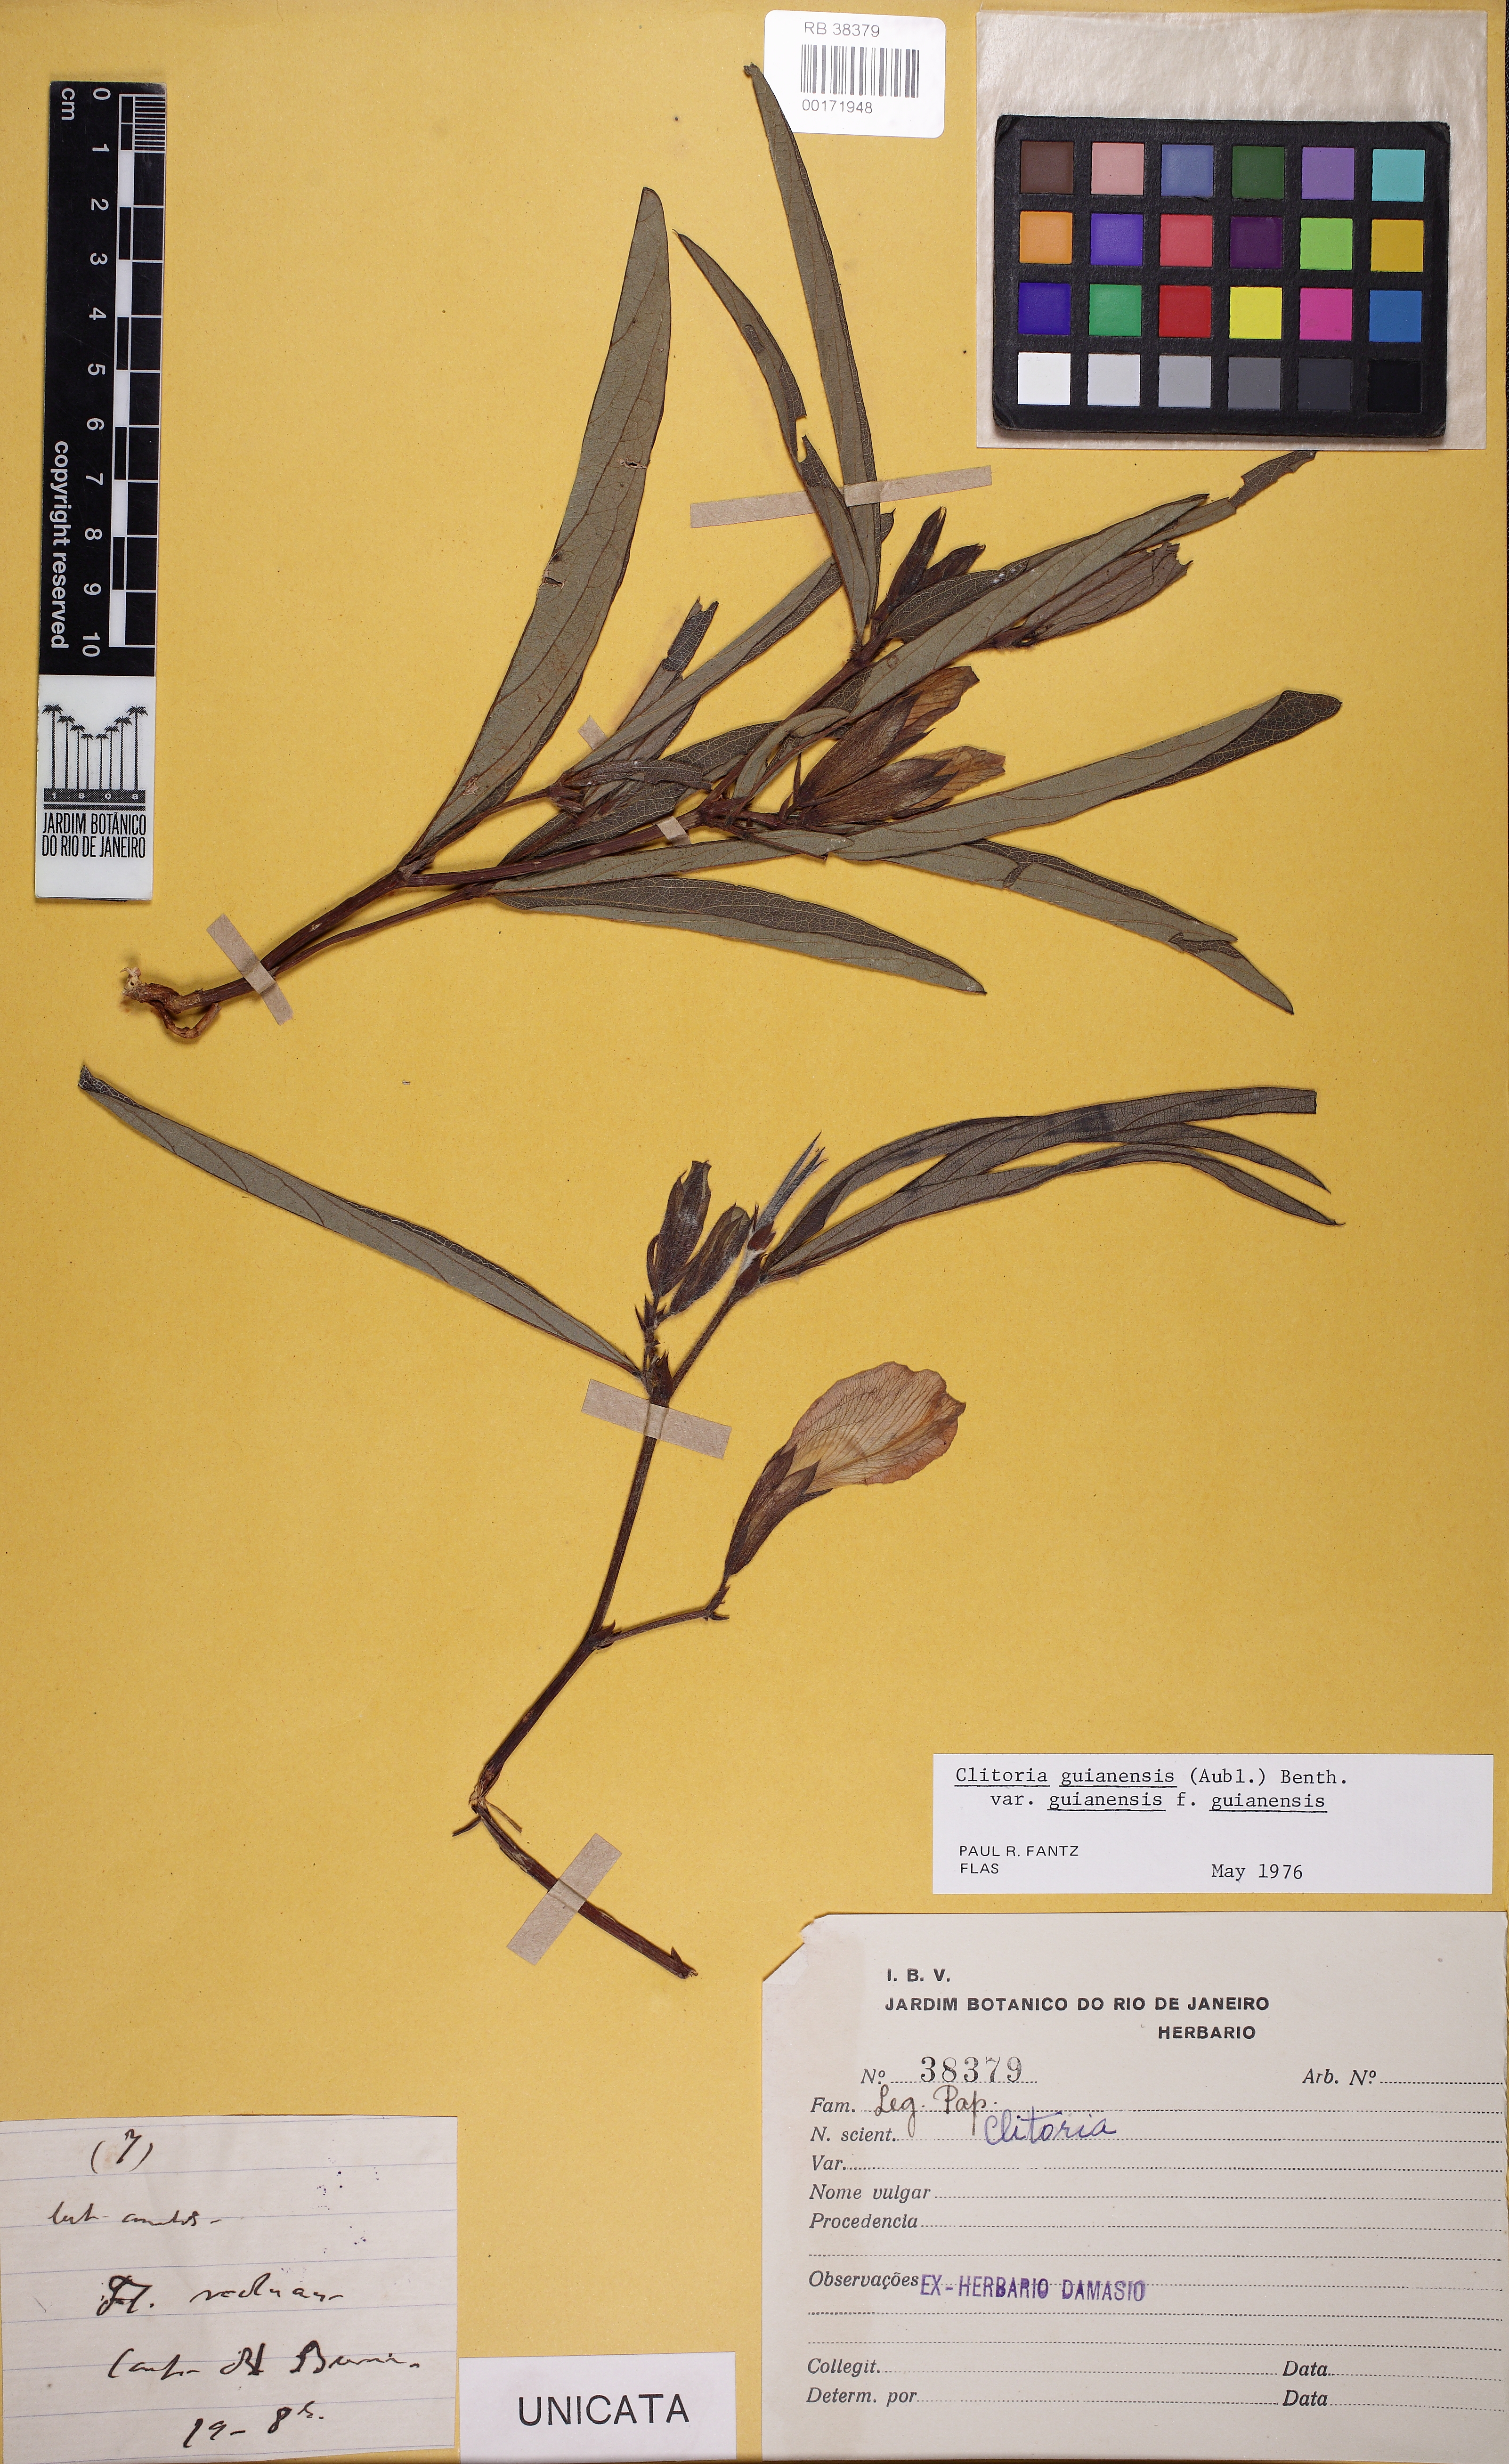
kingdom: Plantae
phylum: Tracheophyta
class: Magnoliopsida
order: Fabales
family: Fabaceae
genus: Clitoria
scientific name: Clitoria guianensis
